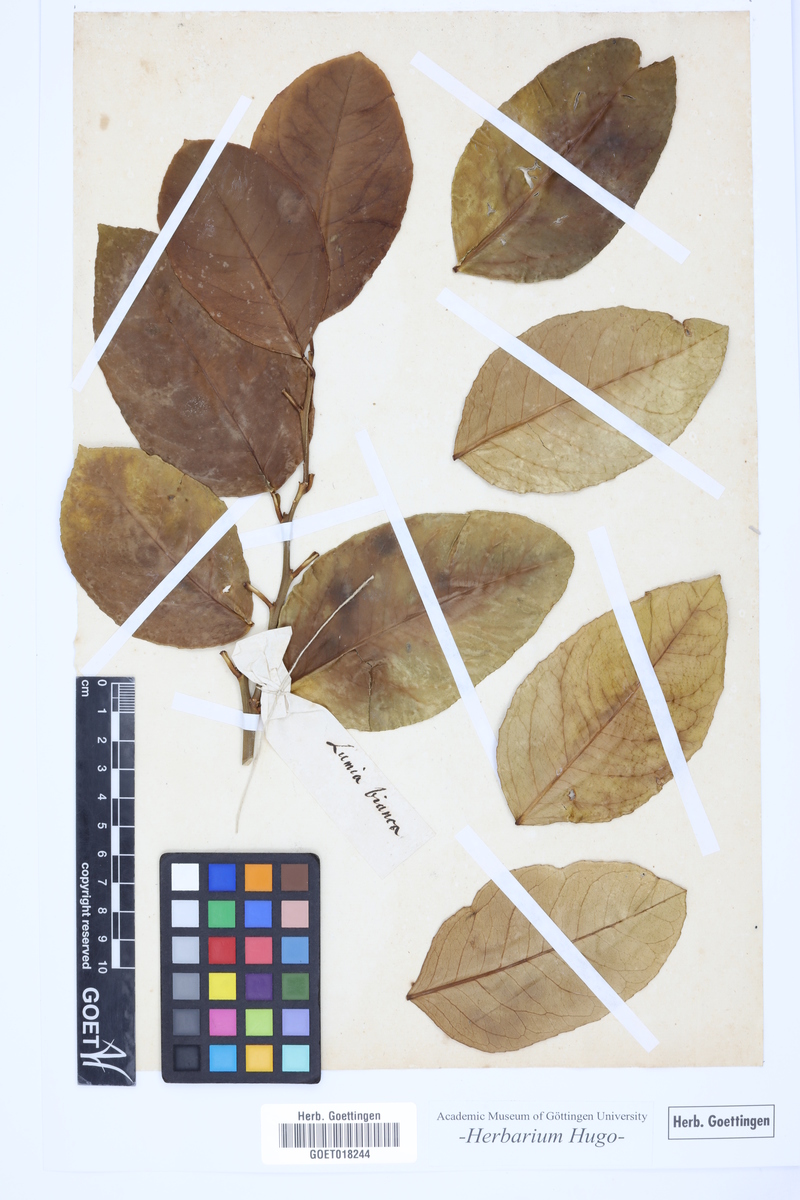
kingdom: Plantae
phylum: Tracheophyta
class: Magnoliopsida
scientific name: Magnoliopsida
